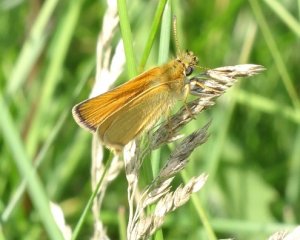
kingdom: Animalia
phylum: Arthropoda
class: Insecta
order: Lepidoptera
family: Hesperiidae
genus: Thymelicus
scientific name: Thymelicus lineola
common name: European Skipper
